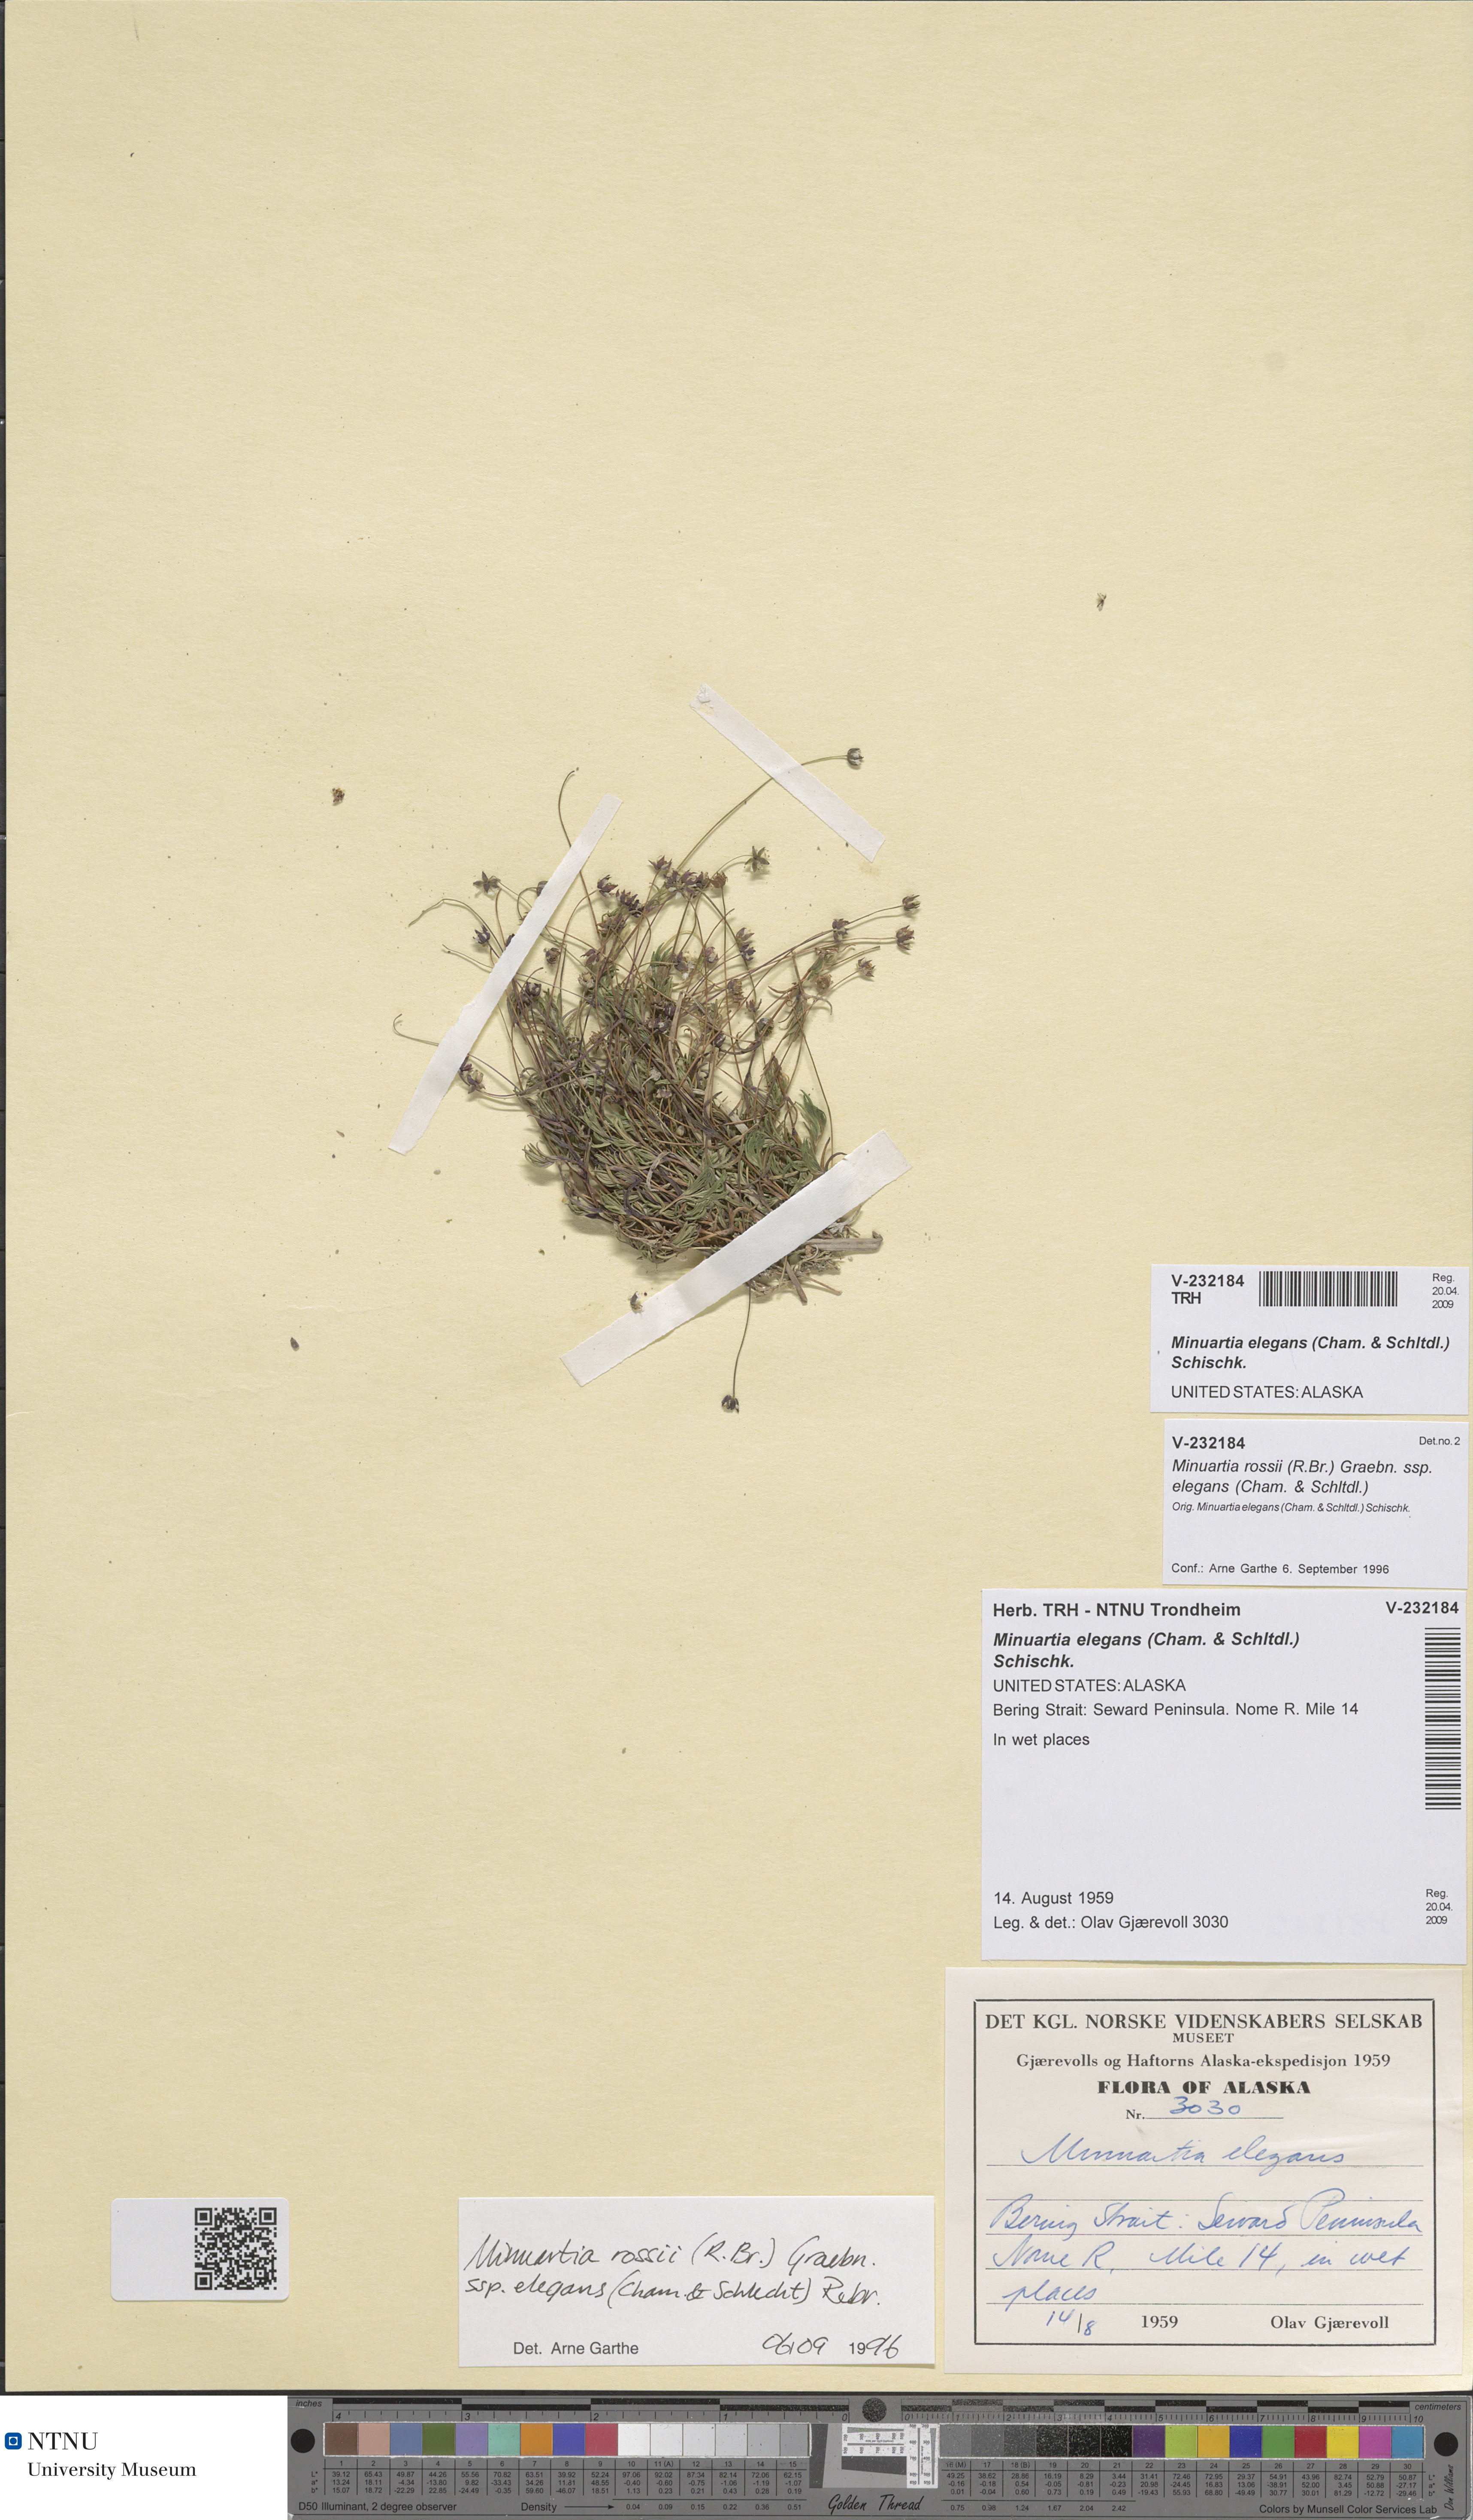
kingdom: Plantae
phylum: Tracheophyta
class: Magnoliopsida
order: Caryophyllales
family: Caryophyllaceae
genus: Sabulina
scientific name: Sabulina elegans
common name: Elegant stitchwort
